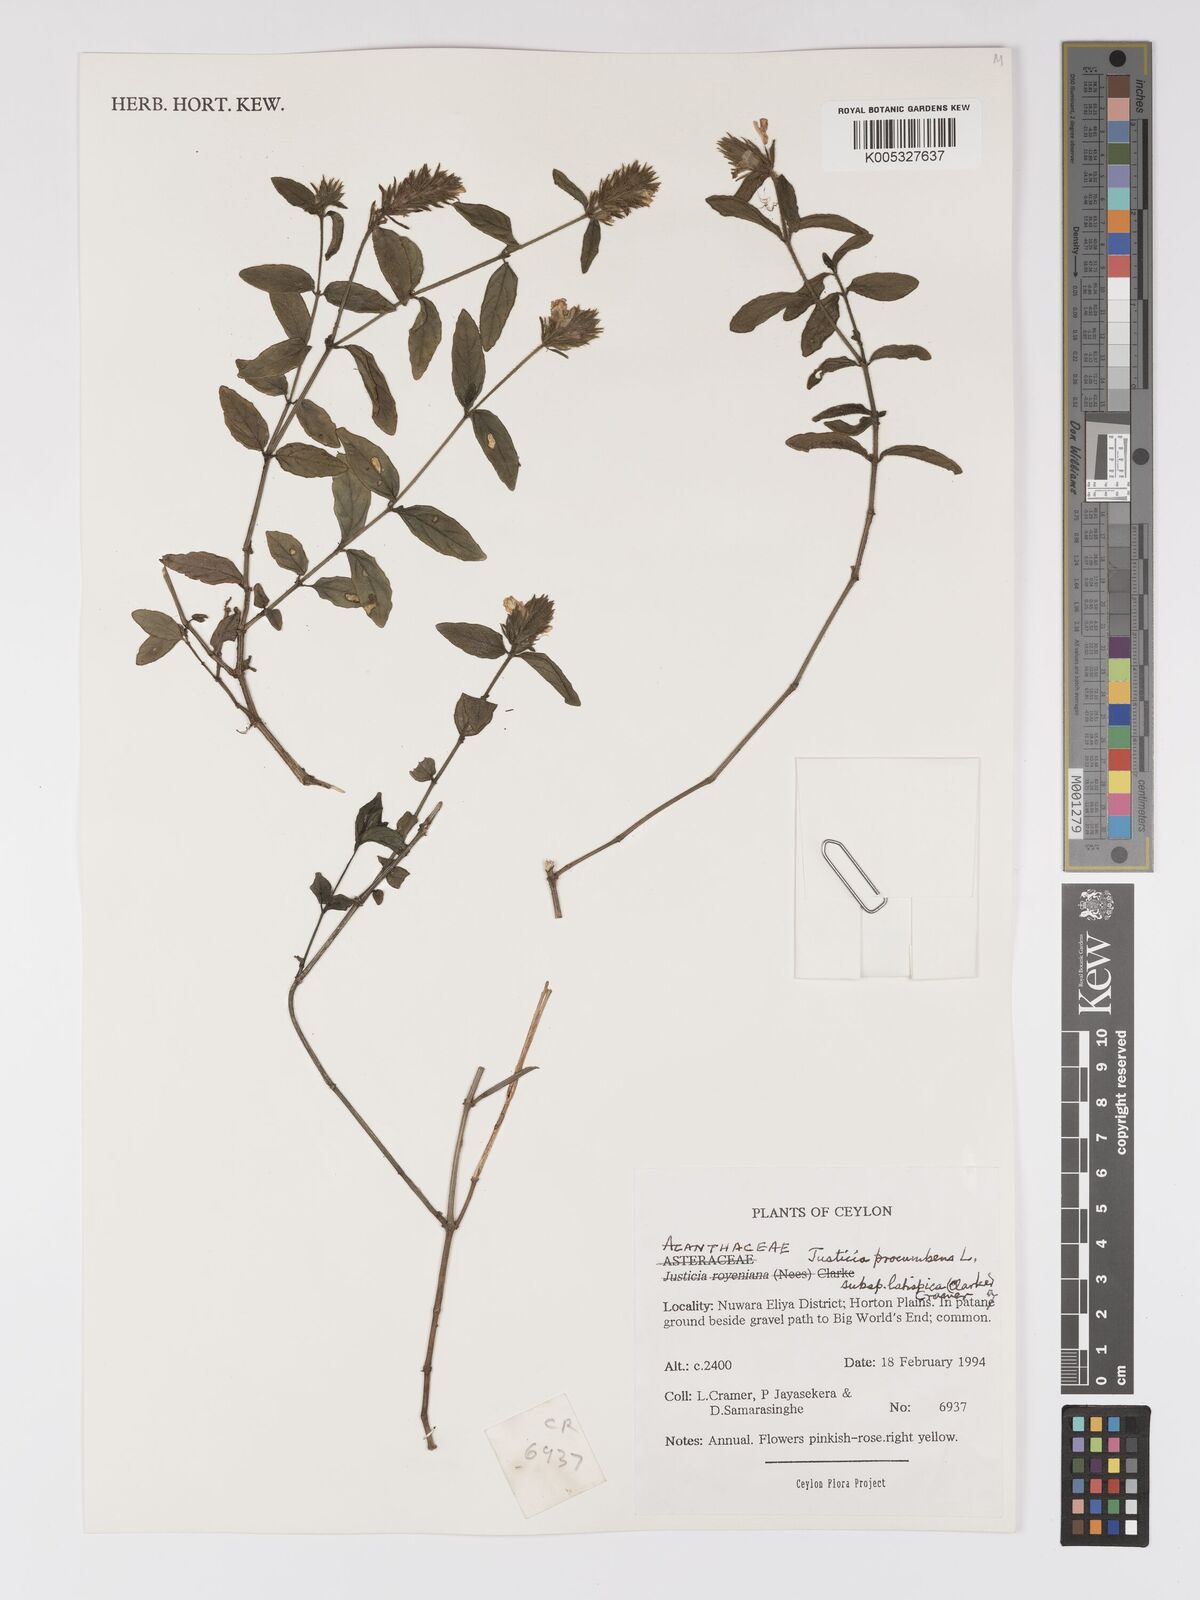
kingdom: Plantae
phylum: Tracheophyta
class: Magnoliopsida
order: Lamiales
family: Acanthaceae
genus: Rostellularia
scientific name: Rostellularia latispica
